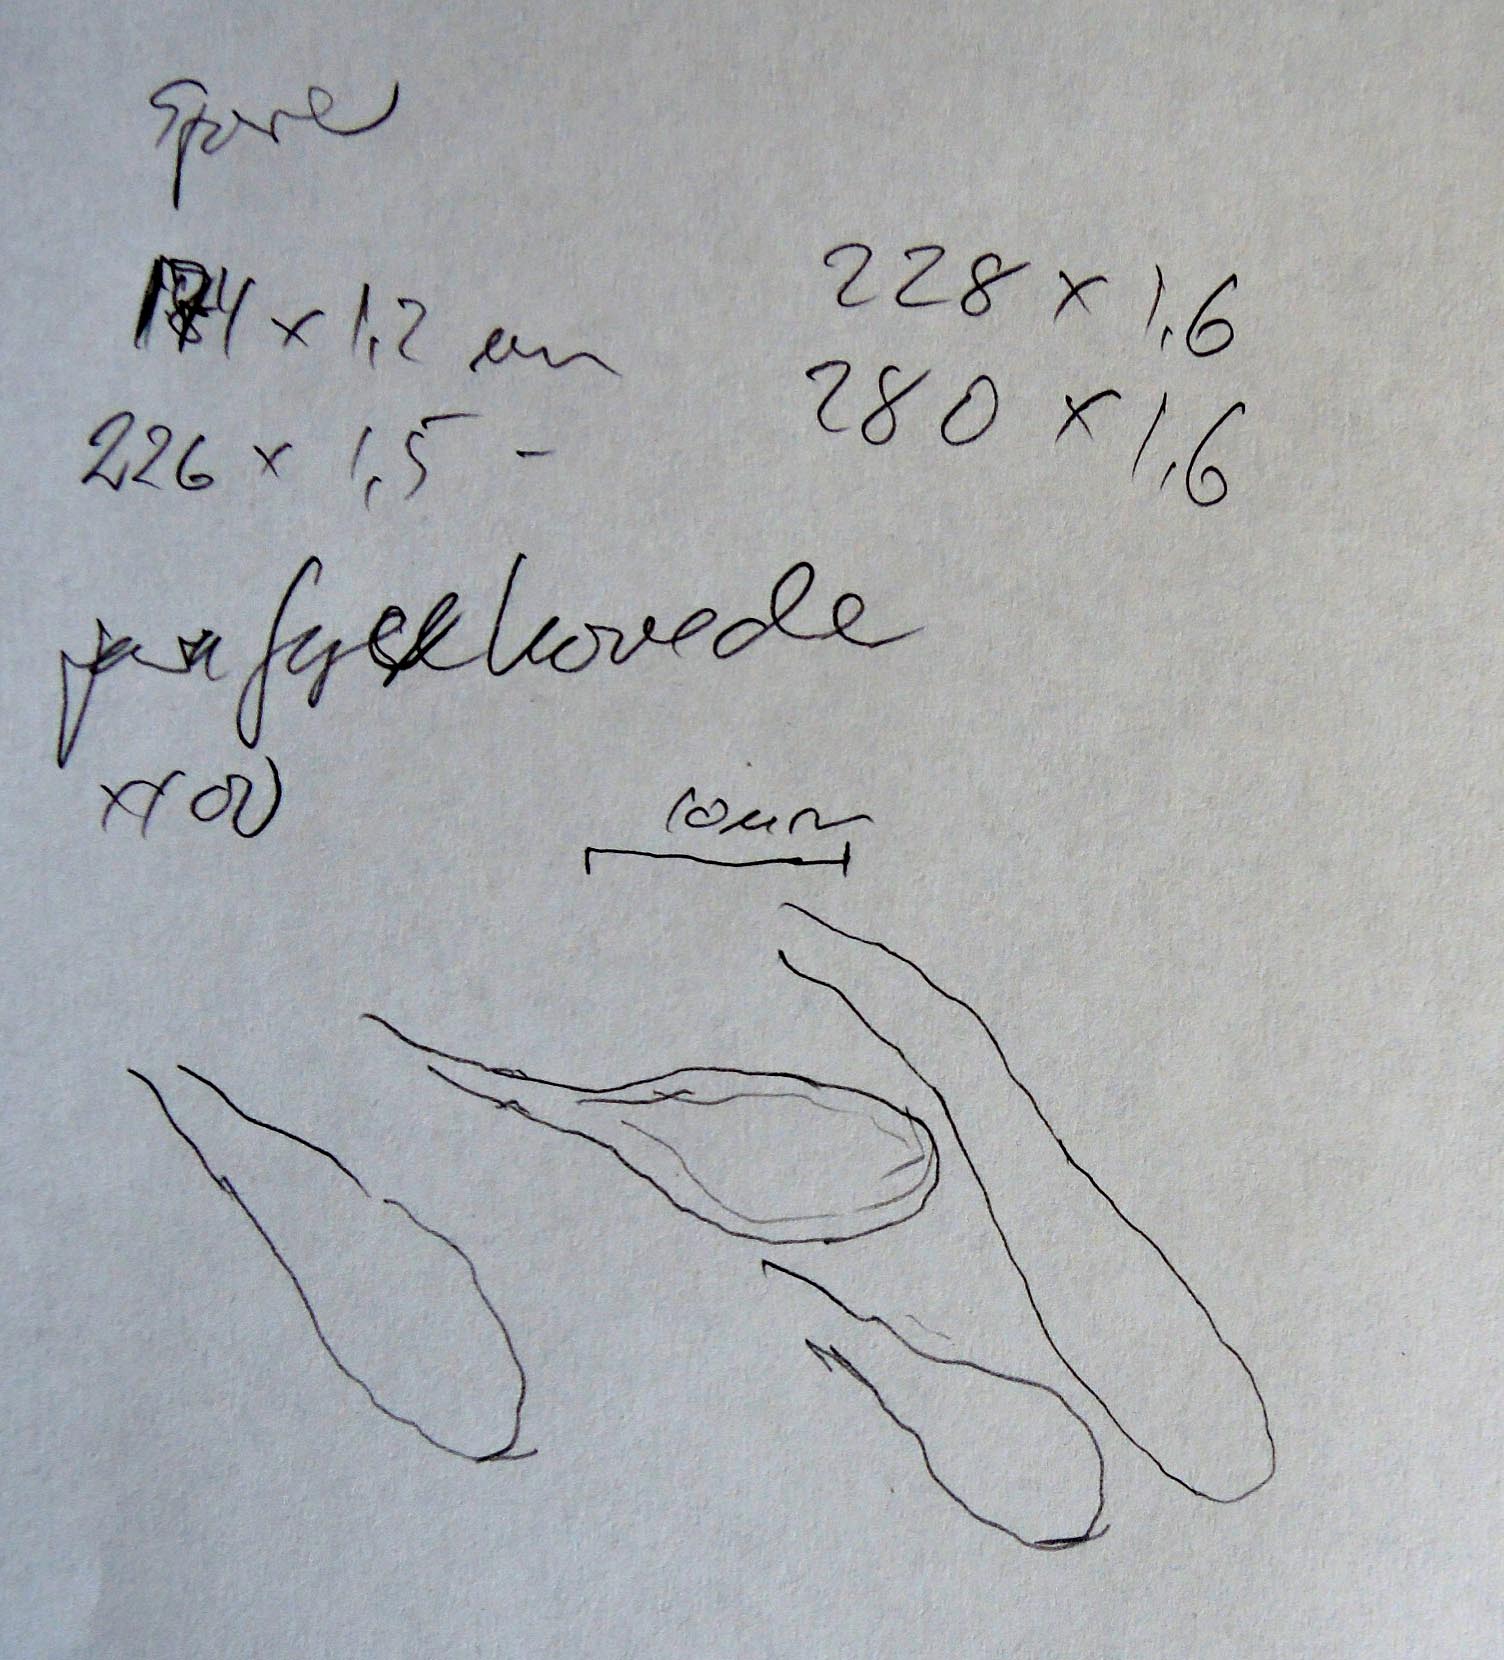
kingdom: Fungi
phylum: Ascomycota
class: Leotiomycetes
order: Helotiales
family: Vibrisseaceae
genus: Vibrissea
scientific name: Vibrissea flavovirens
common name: gulgrøn bækskive
